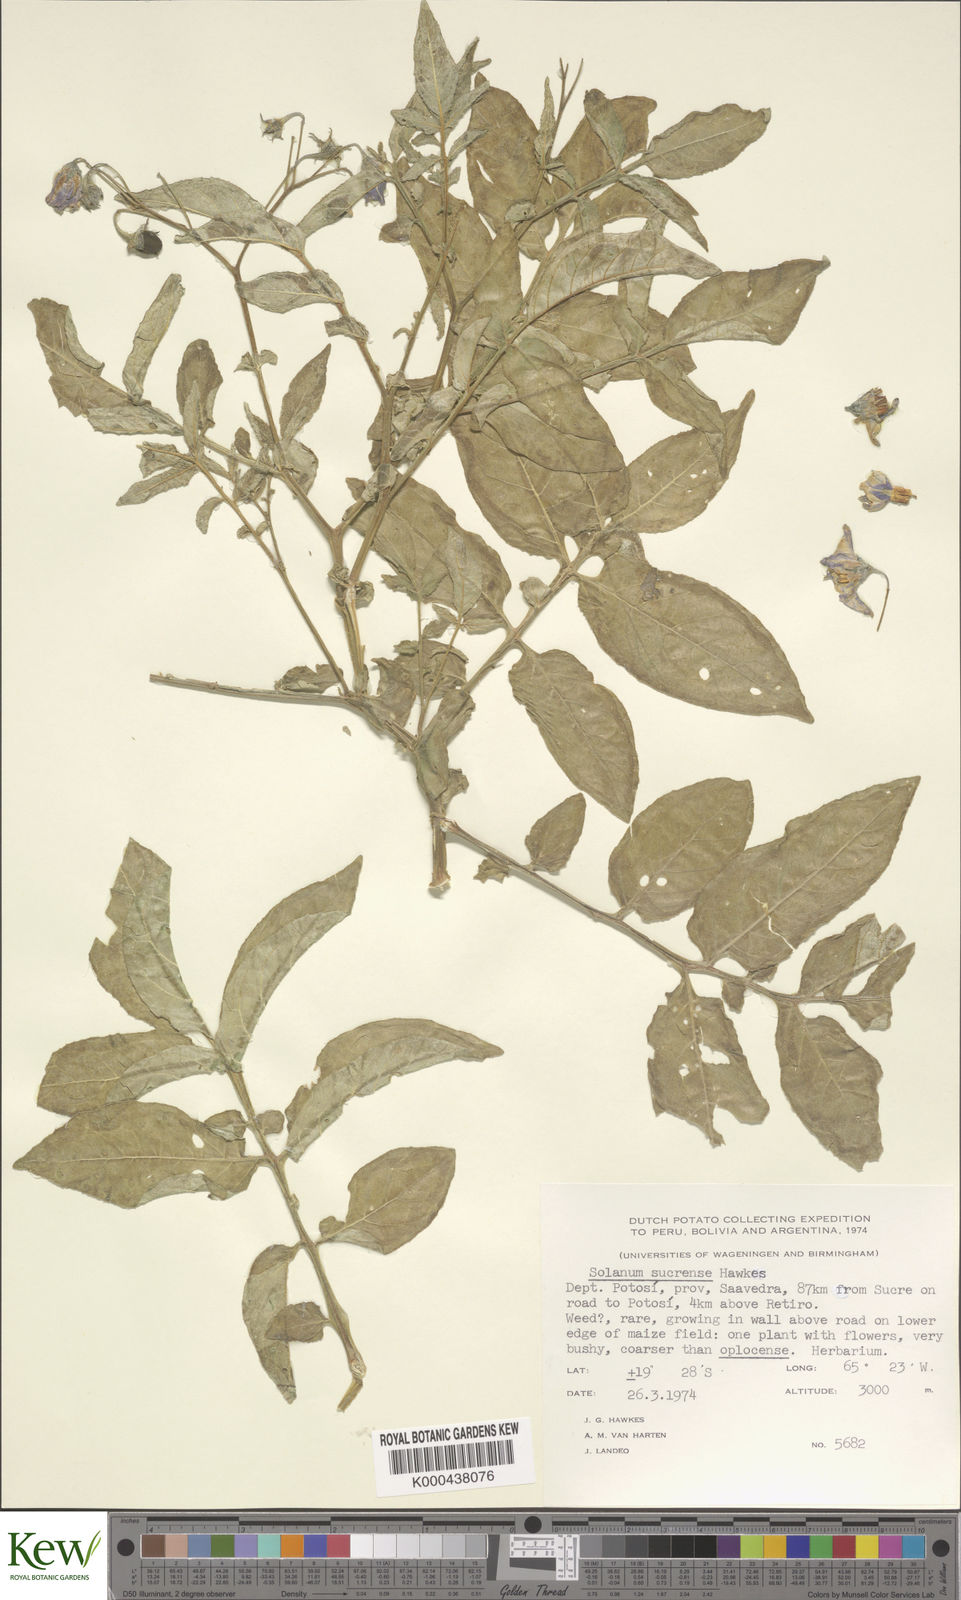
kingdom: Plantae
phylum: Tracheophyta
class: Magnoliopsida
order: Solanales
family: Solanaceae
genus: Solanum
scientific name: Solanum brevicaule
